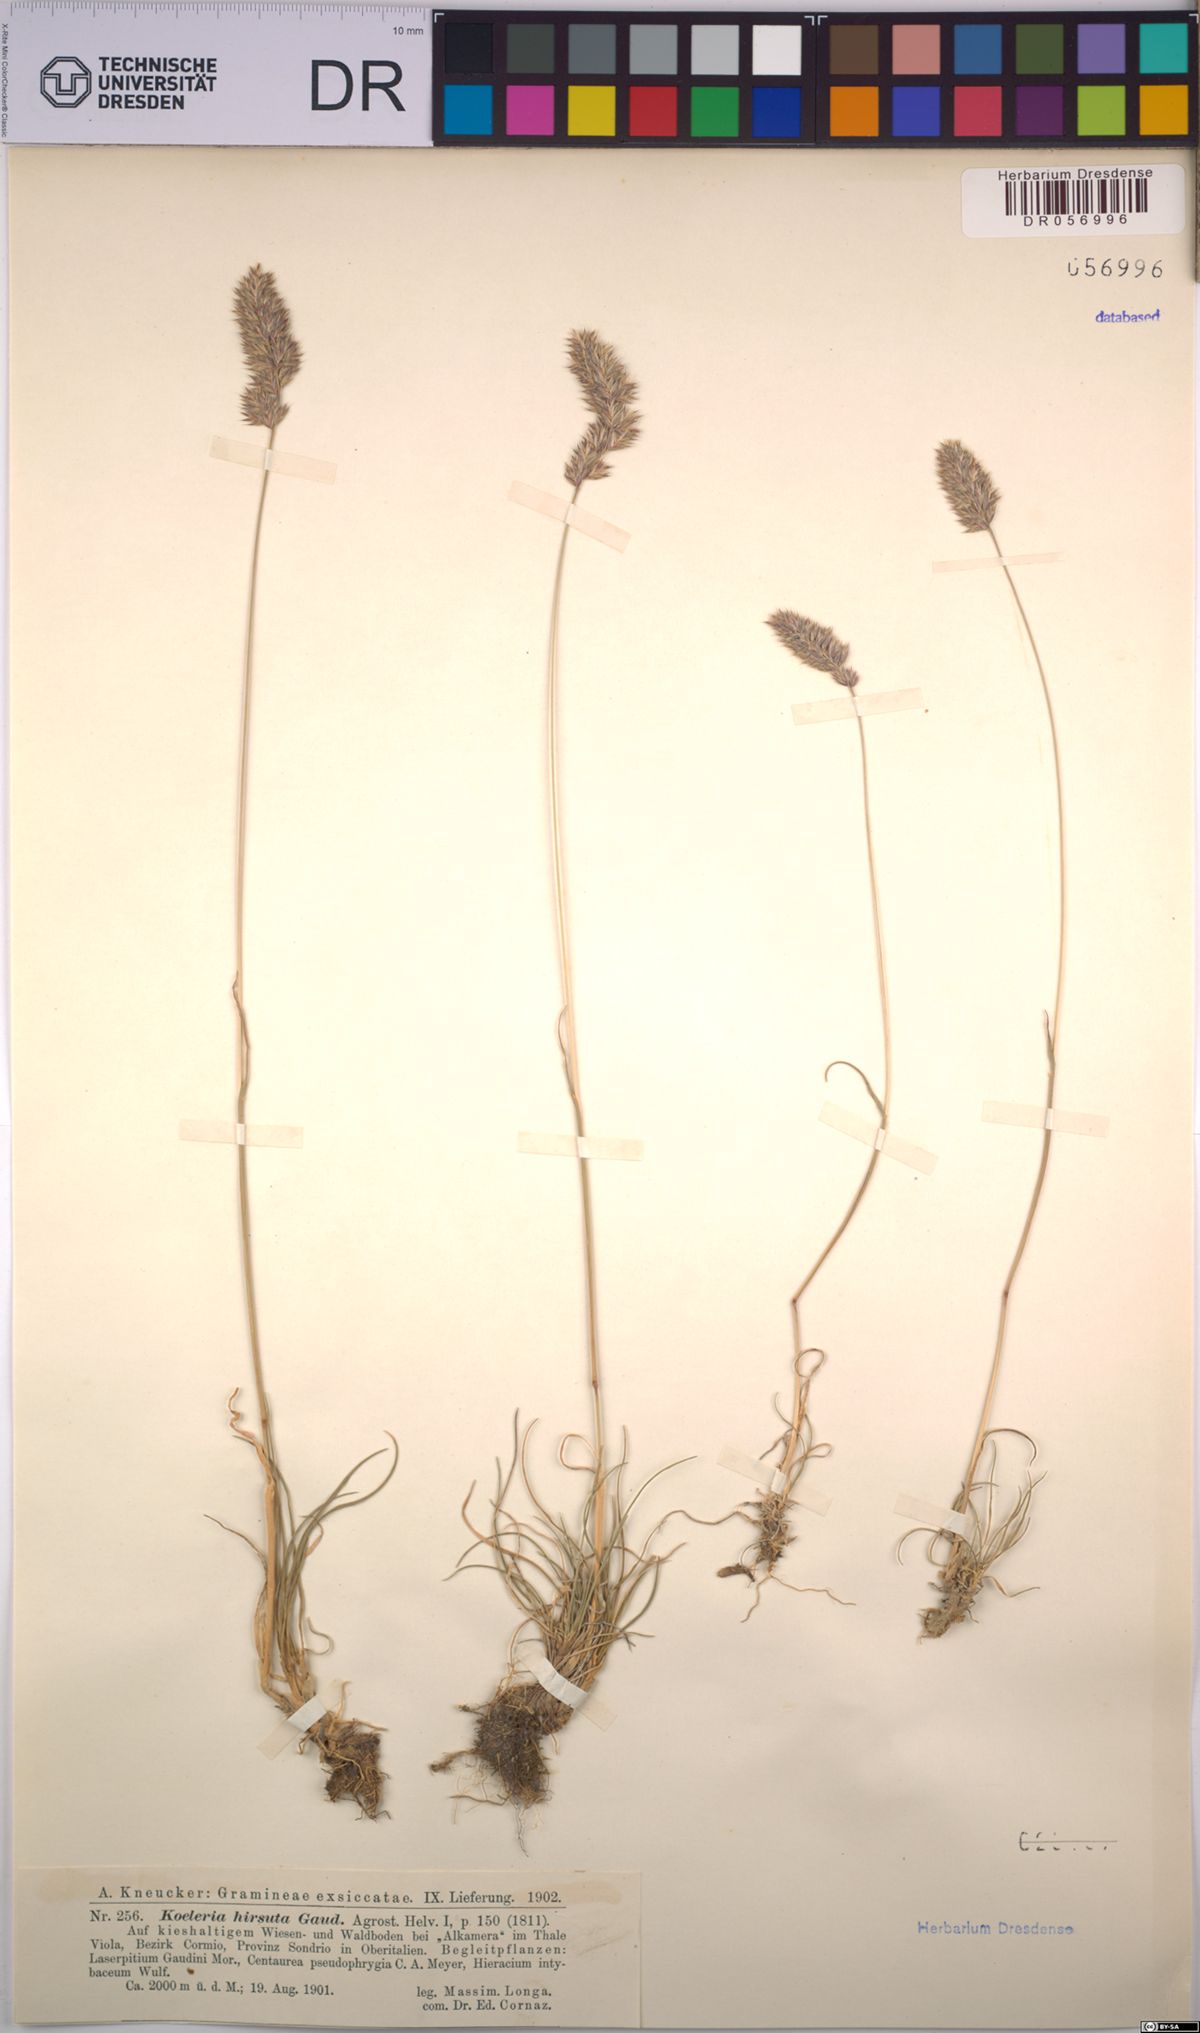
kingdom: Plantae
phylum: Tracheophyta
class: Liliopsida
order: Poales
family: Poaceae
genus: Koeleria
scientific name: Koeleria hirsuta
